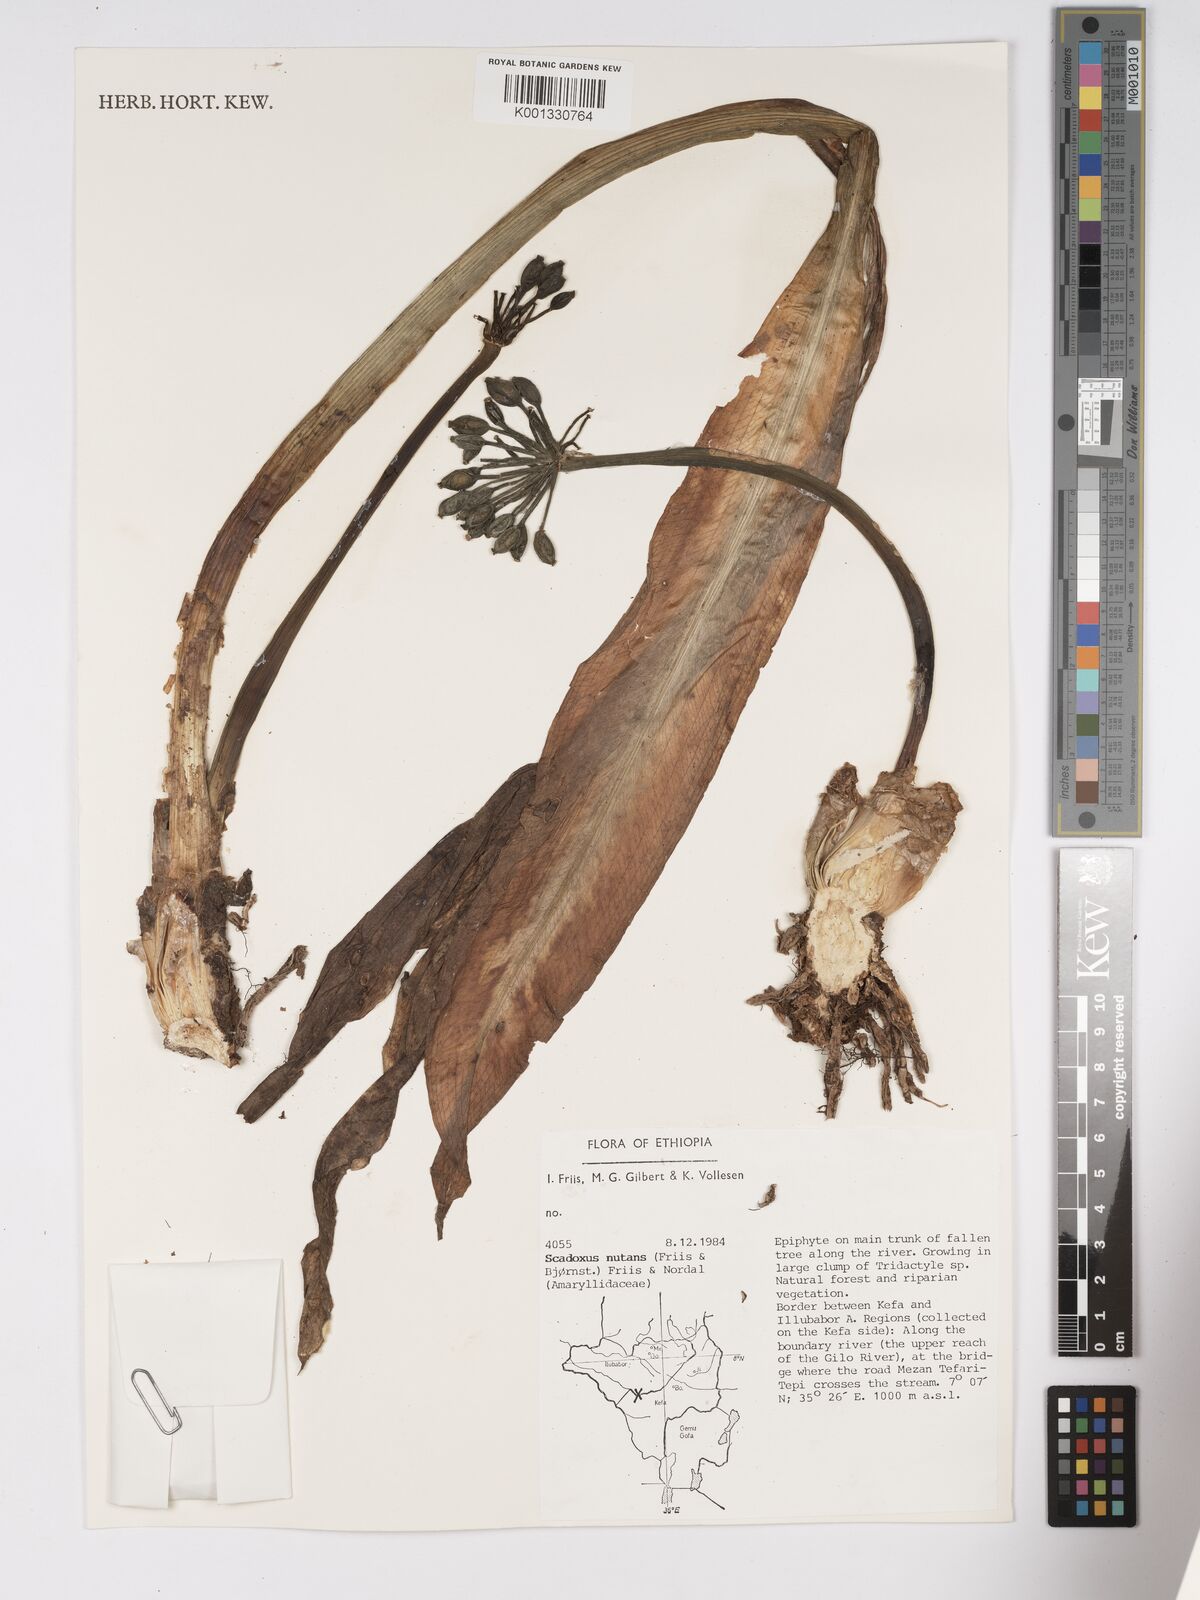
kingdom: Plantae
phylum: Tracheophyta
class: Liliopsida
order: Asparagales
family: Amaryllidaceae
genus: Scadoxus
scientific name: Scadoxus nutans
